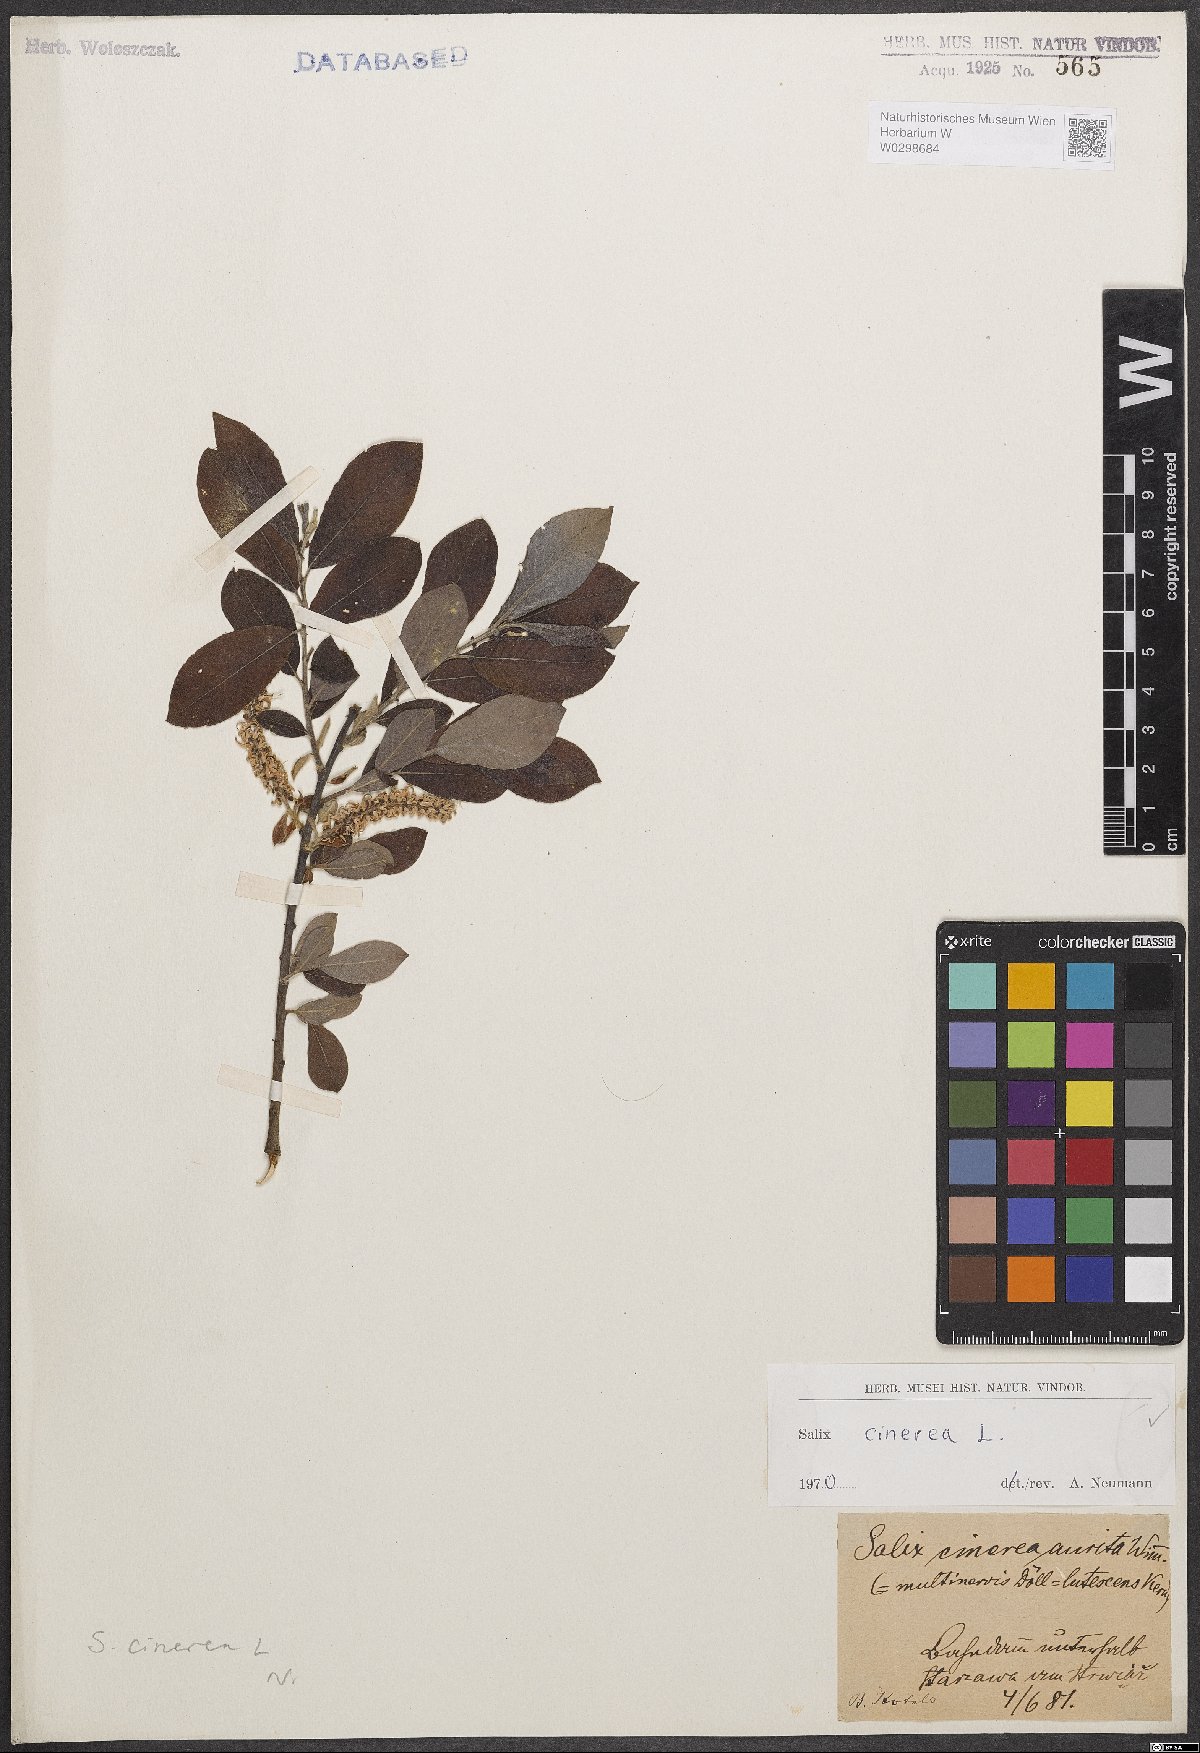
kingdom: Plantae
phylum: Tracheophyta
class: Magnoliopsida
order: Malpighiales
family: Salicaceae
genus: Salix
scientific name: Salix cinerea
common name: Common sallow
